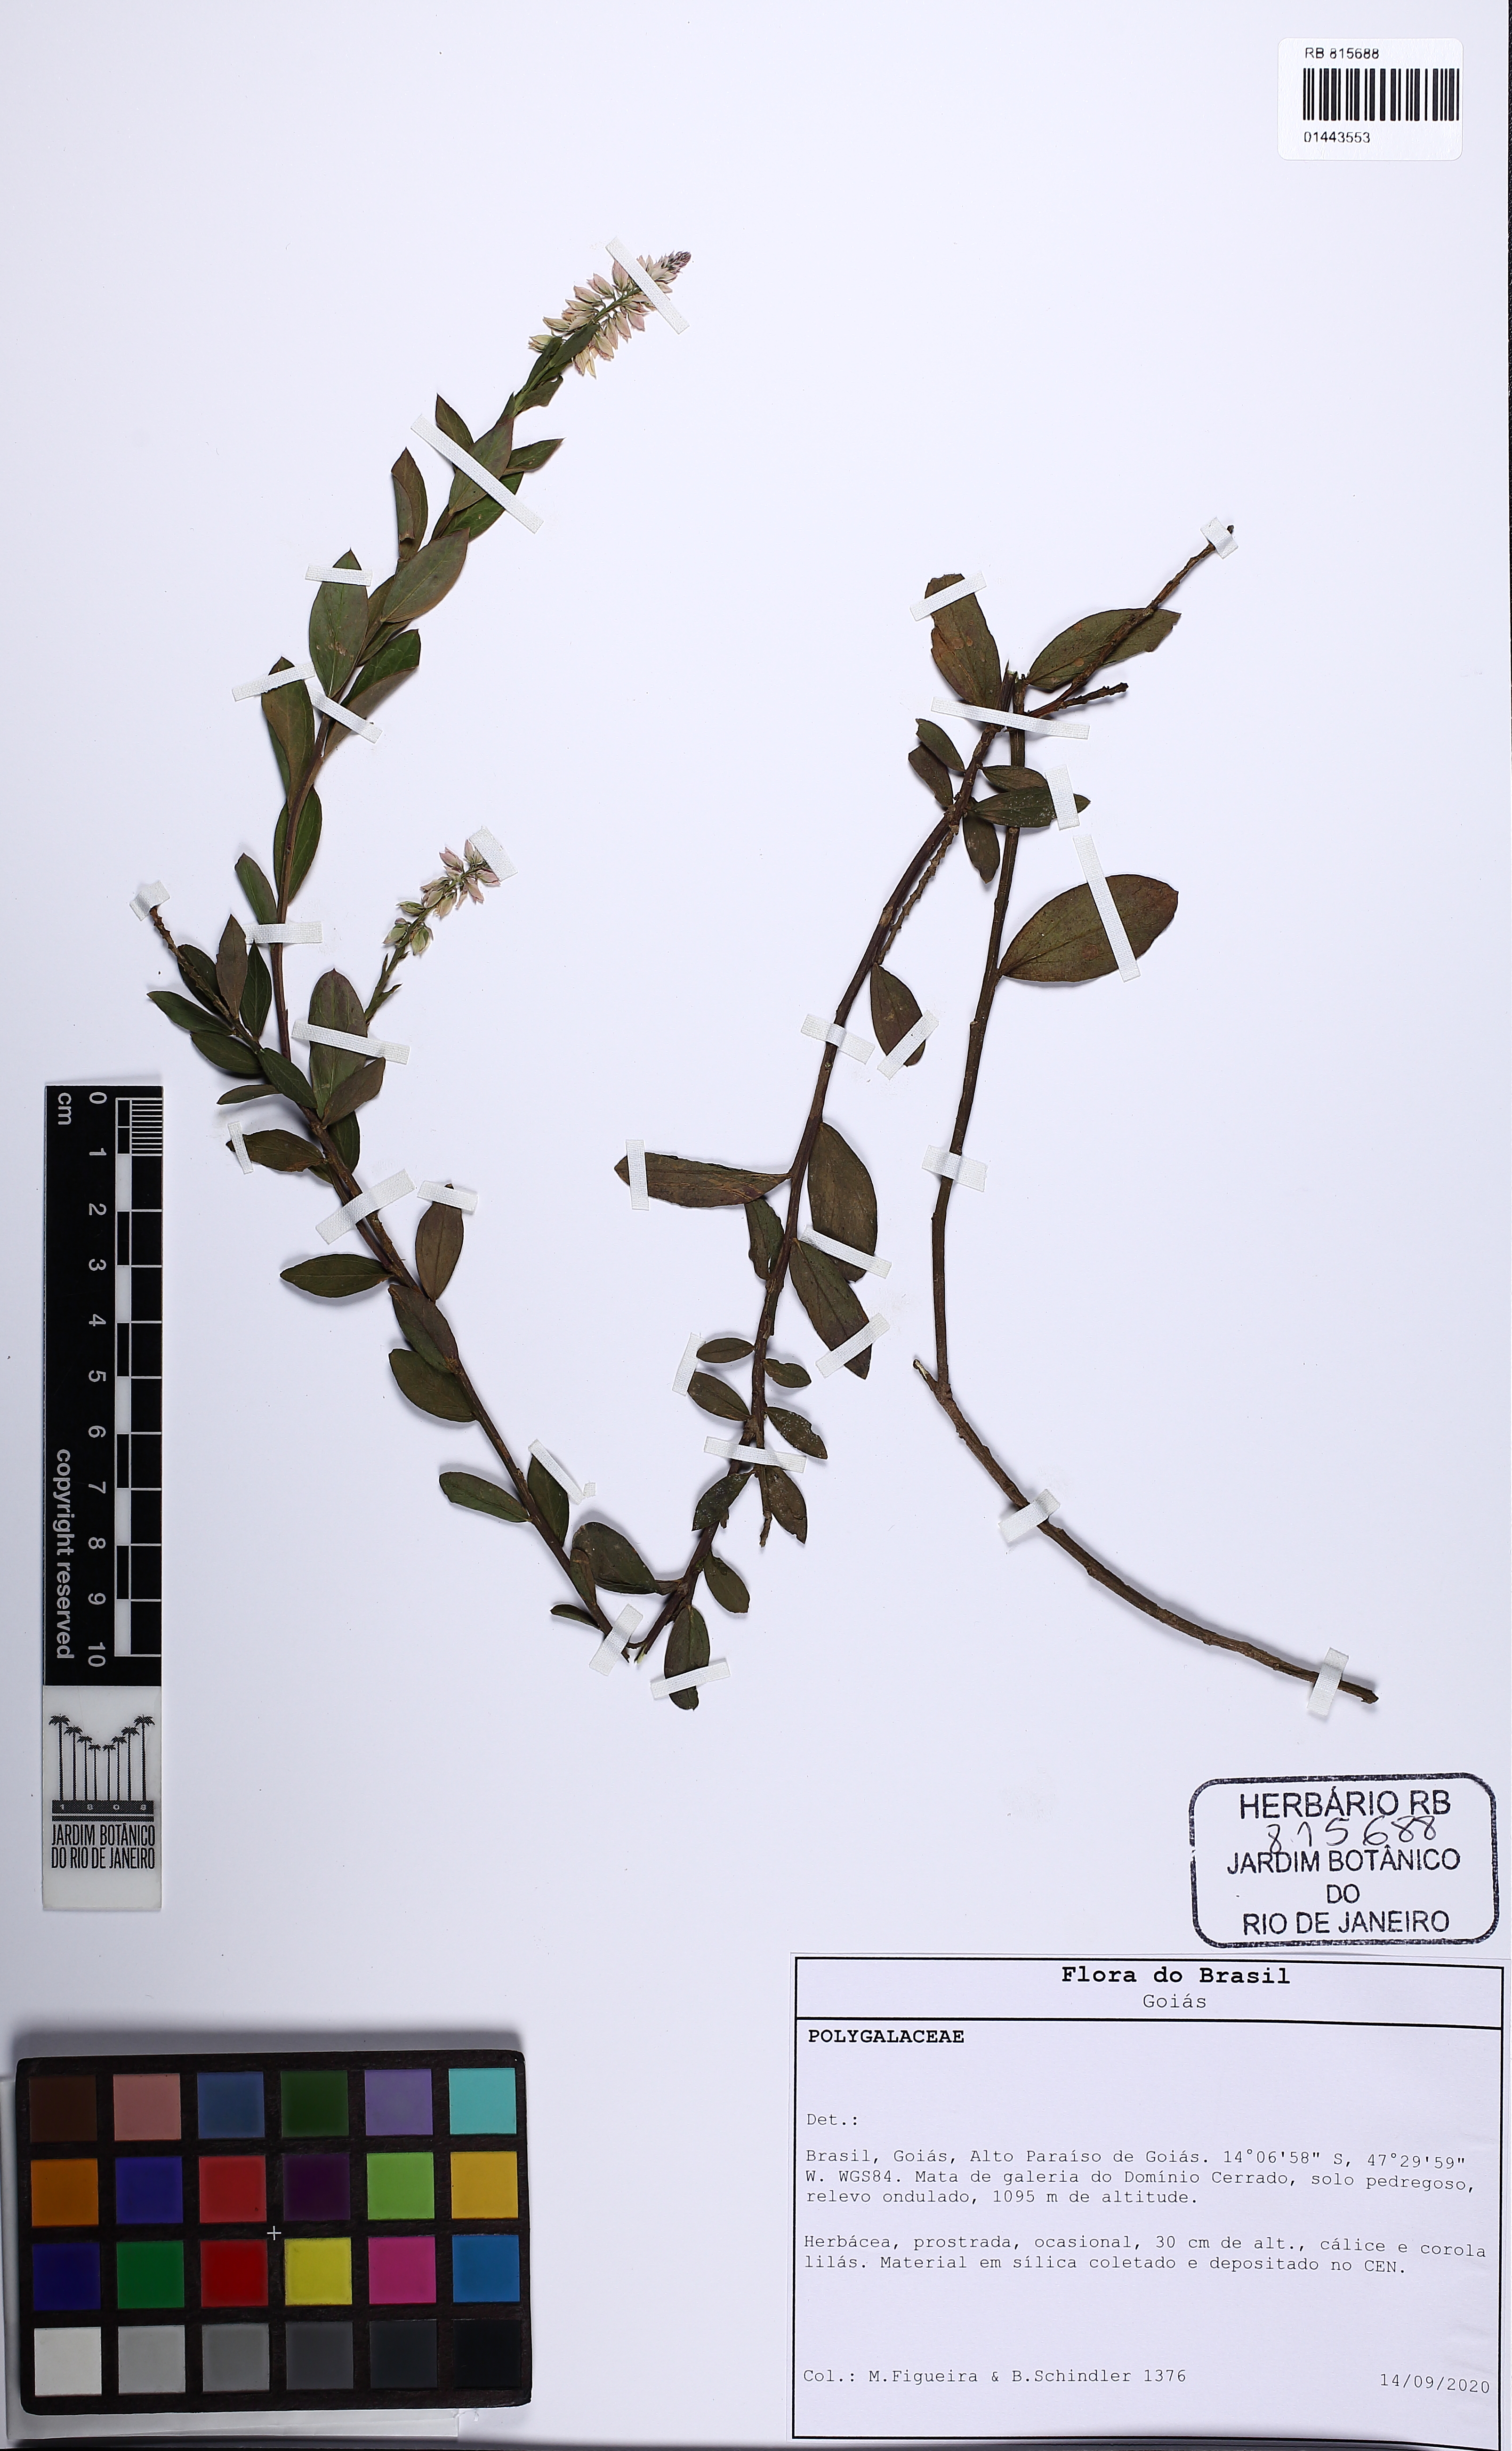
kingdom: Plantae
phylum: Tracheophyta
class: Magnoliopsida
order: Fabales
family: Polygalaceae
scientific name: Polygalaceae
